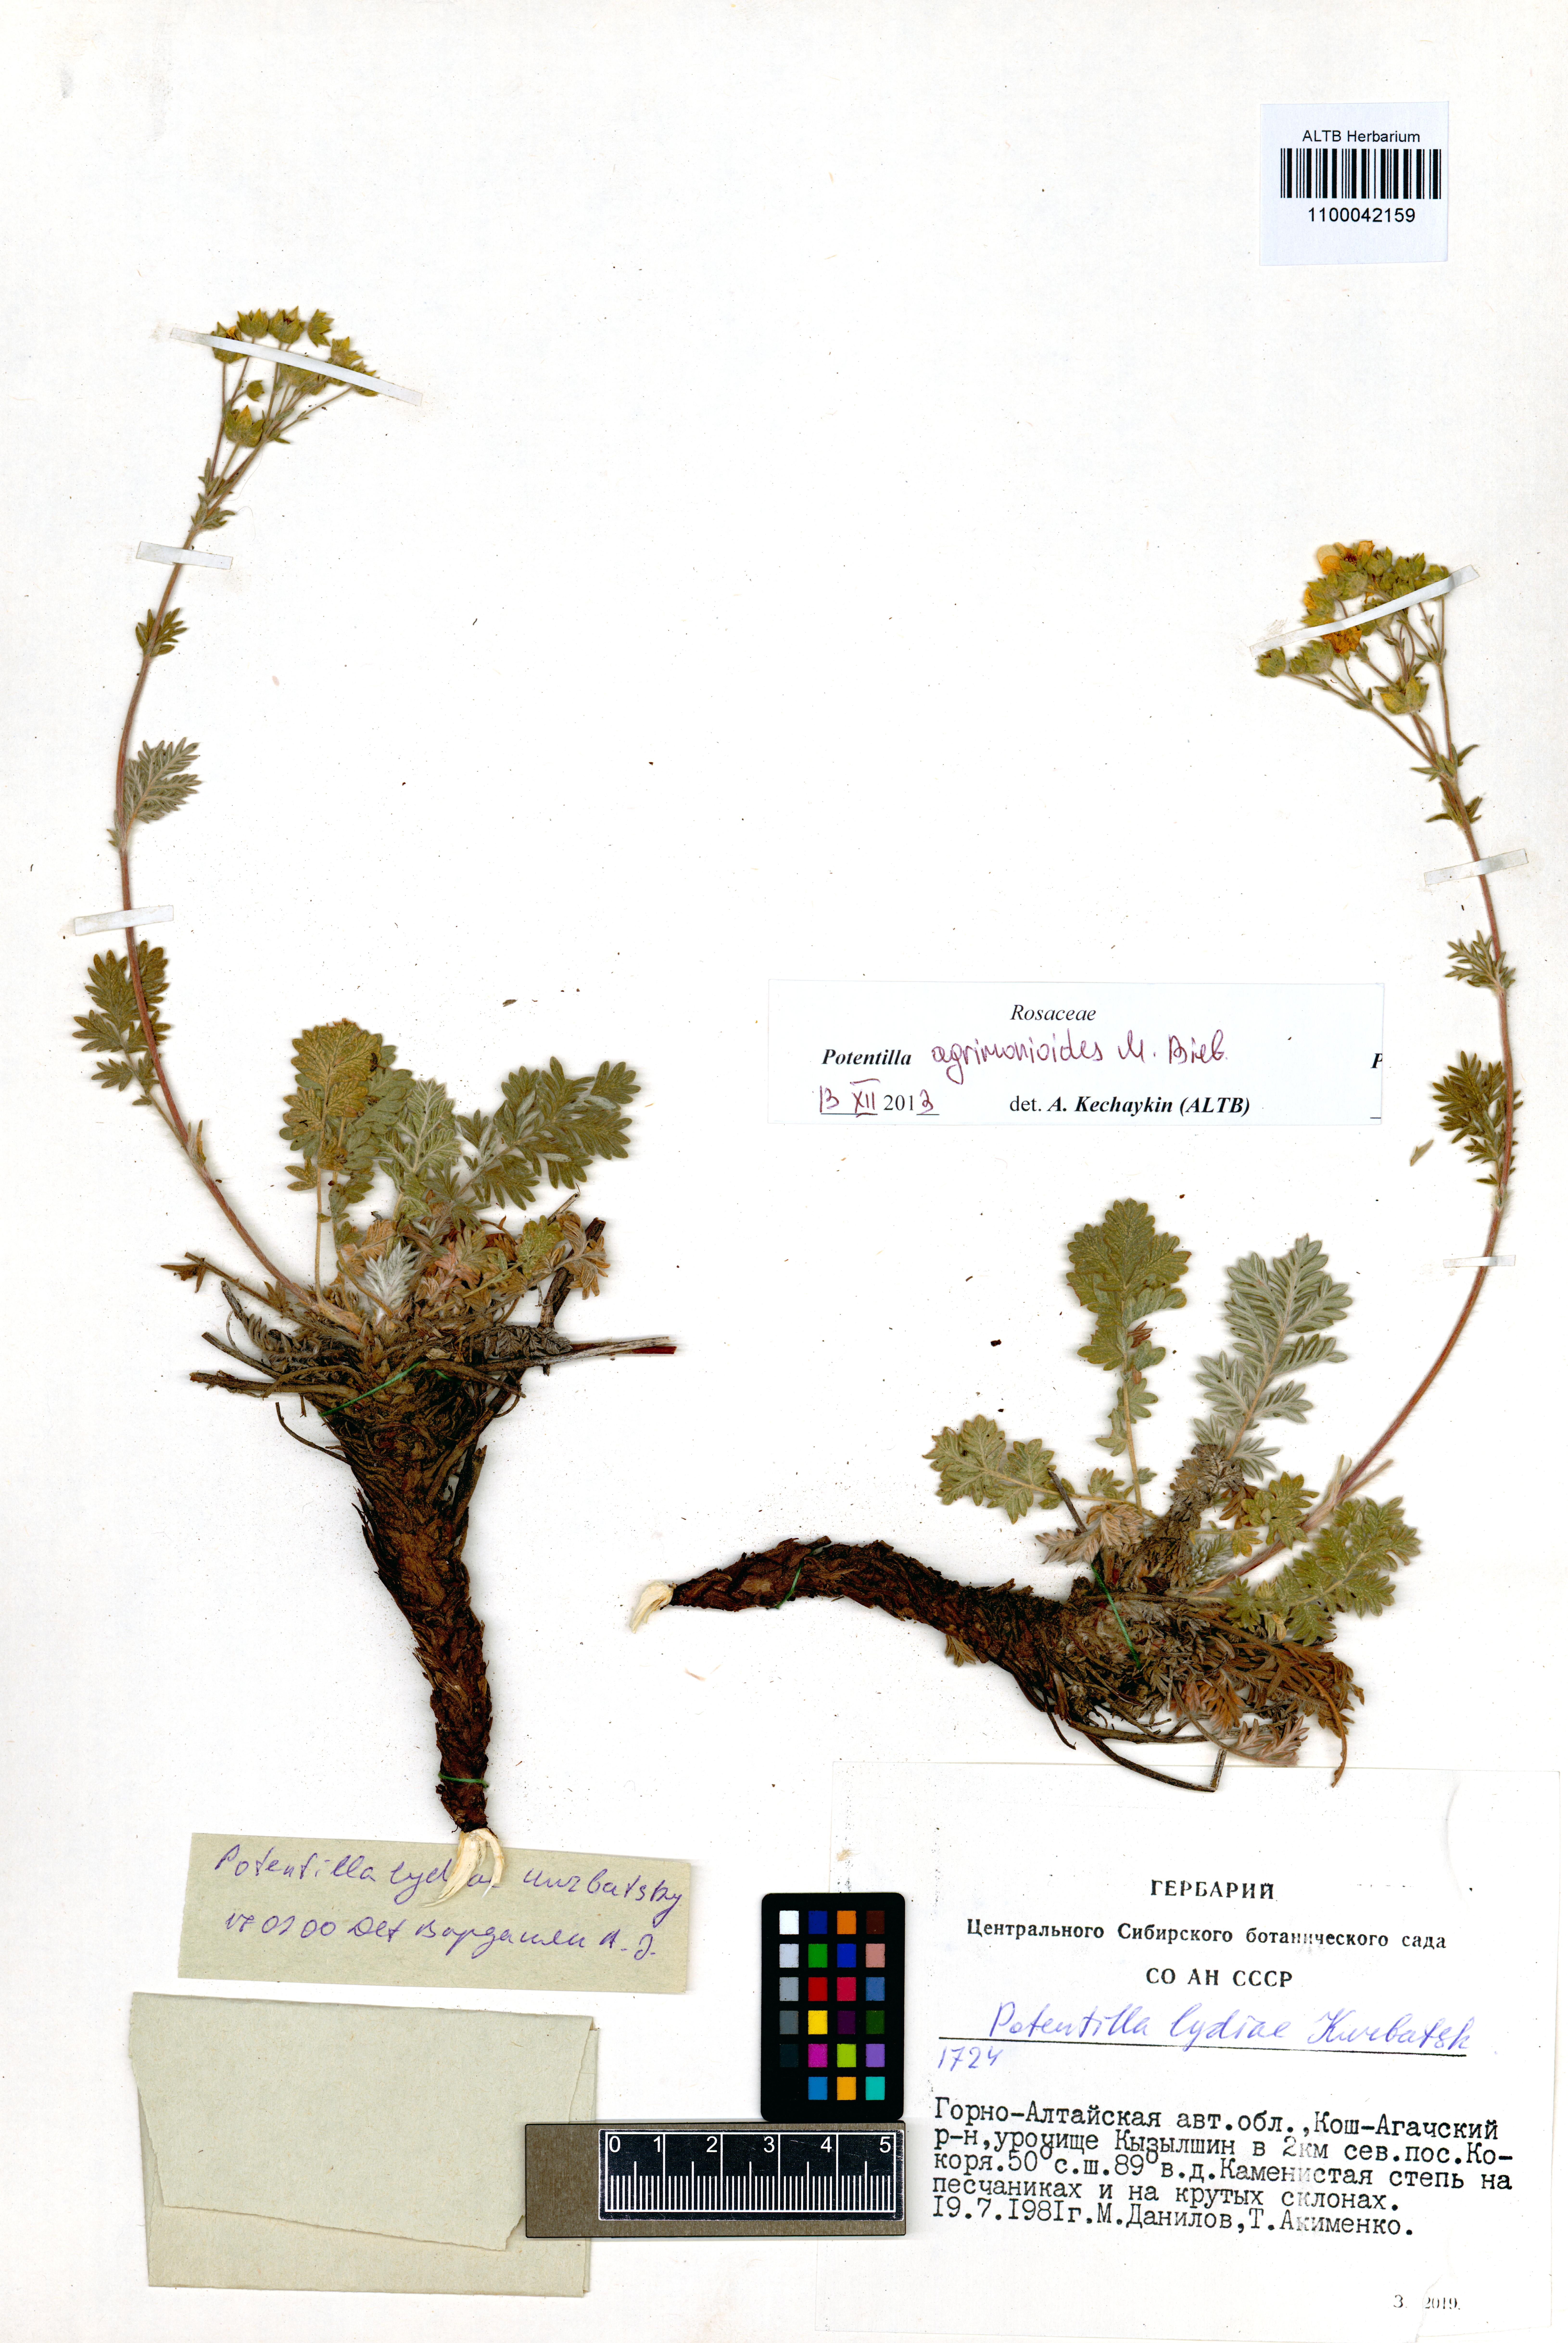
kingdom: Plantae
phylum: Tracheophyta
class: Magnoliopsida
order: Rosales
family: Rosaceae
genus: Potentilla
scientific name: Potentilla agrimonioides
